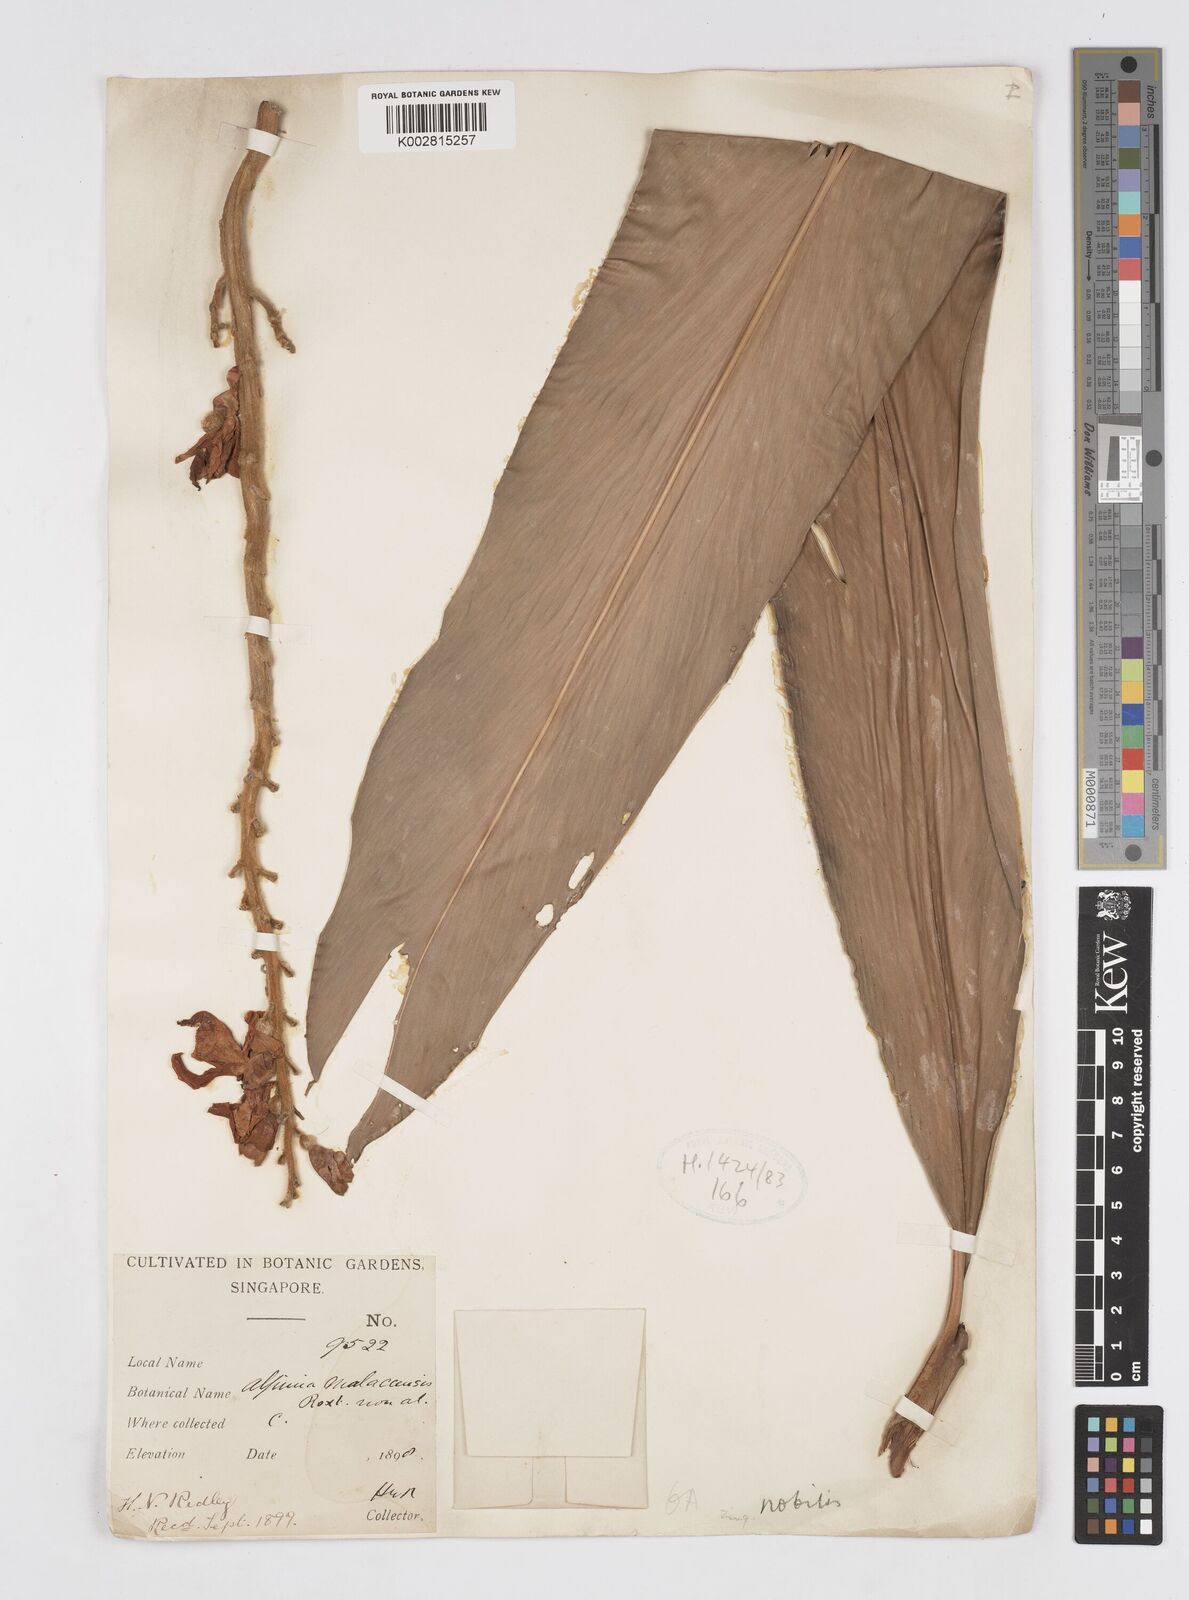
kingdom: Plantae
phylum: Tracheophyta
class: Liliopsida
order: Zingiberales
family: Zingiberaceae
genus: Alpinia
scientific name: Alpinia nobilis
